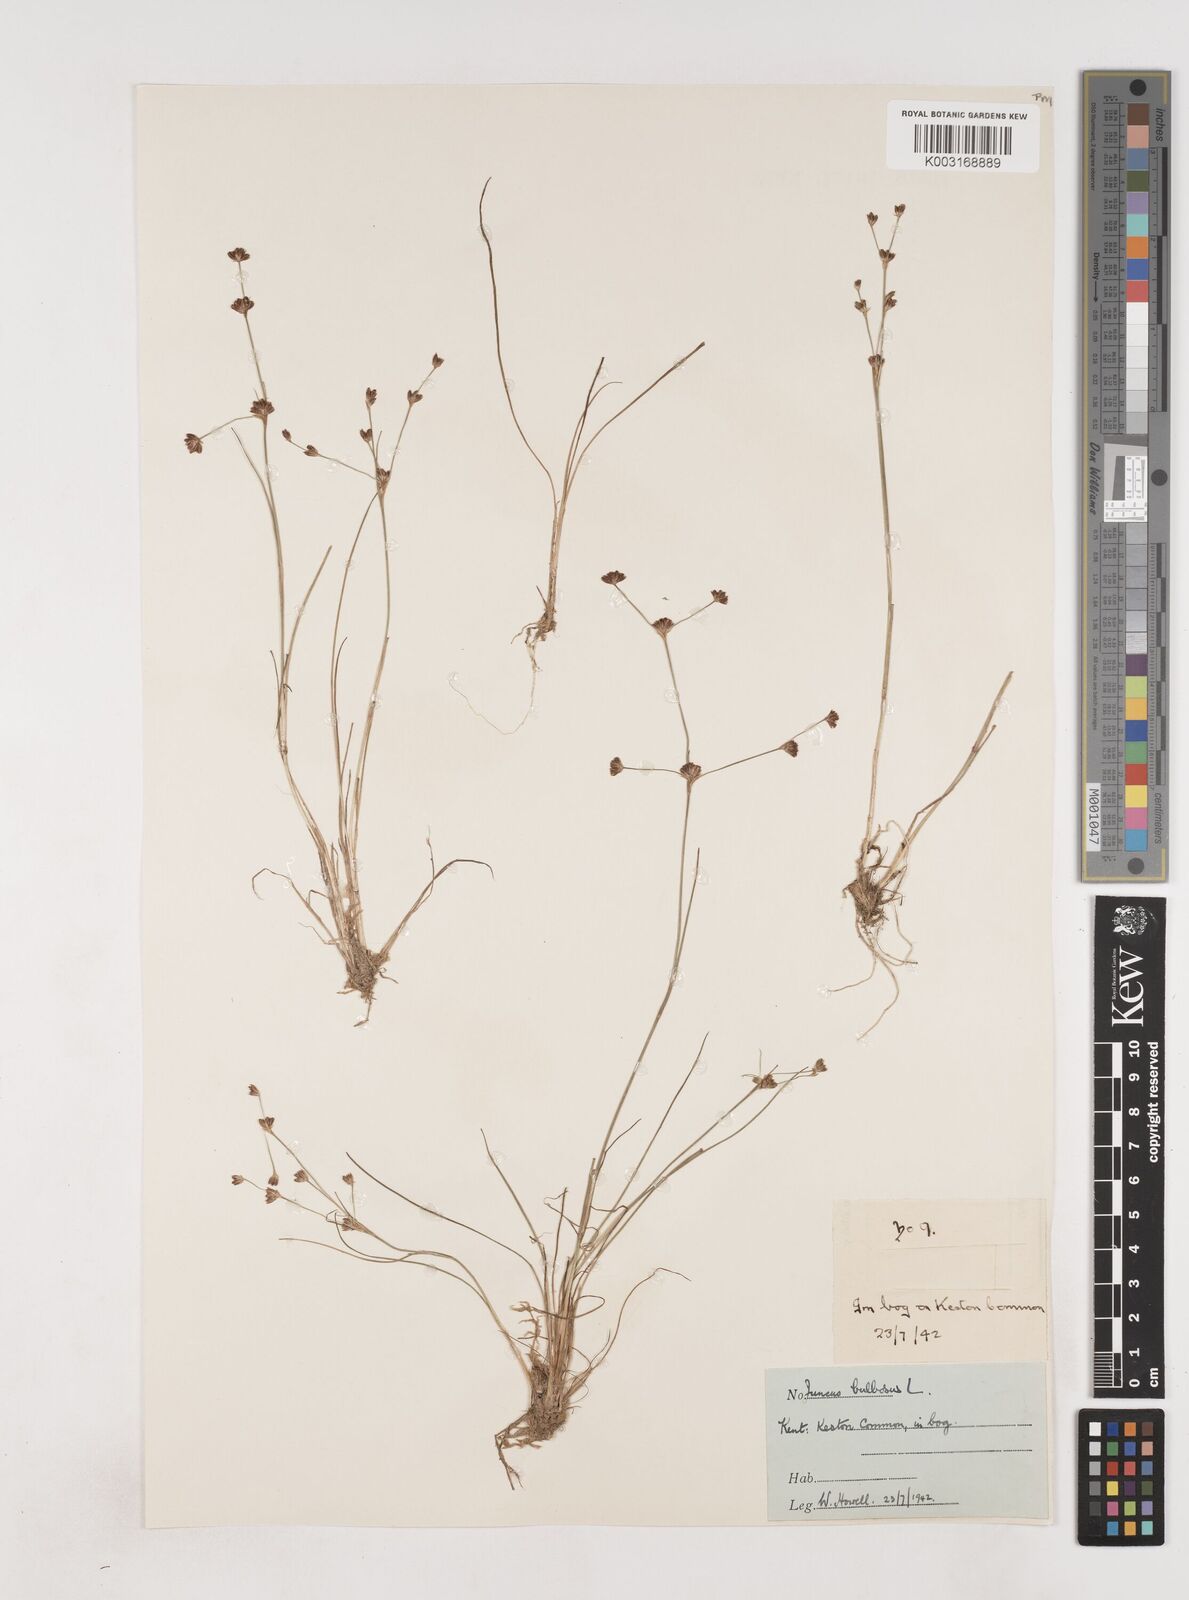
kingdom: Plantae
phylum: Tracheophyta
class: Liliopsida
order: Poales
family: Juncaceae
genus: Juncus
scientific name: Juncus bulbosus
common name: Bulbous rush
